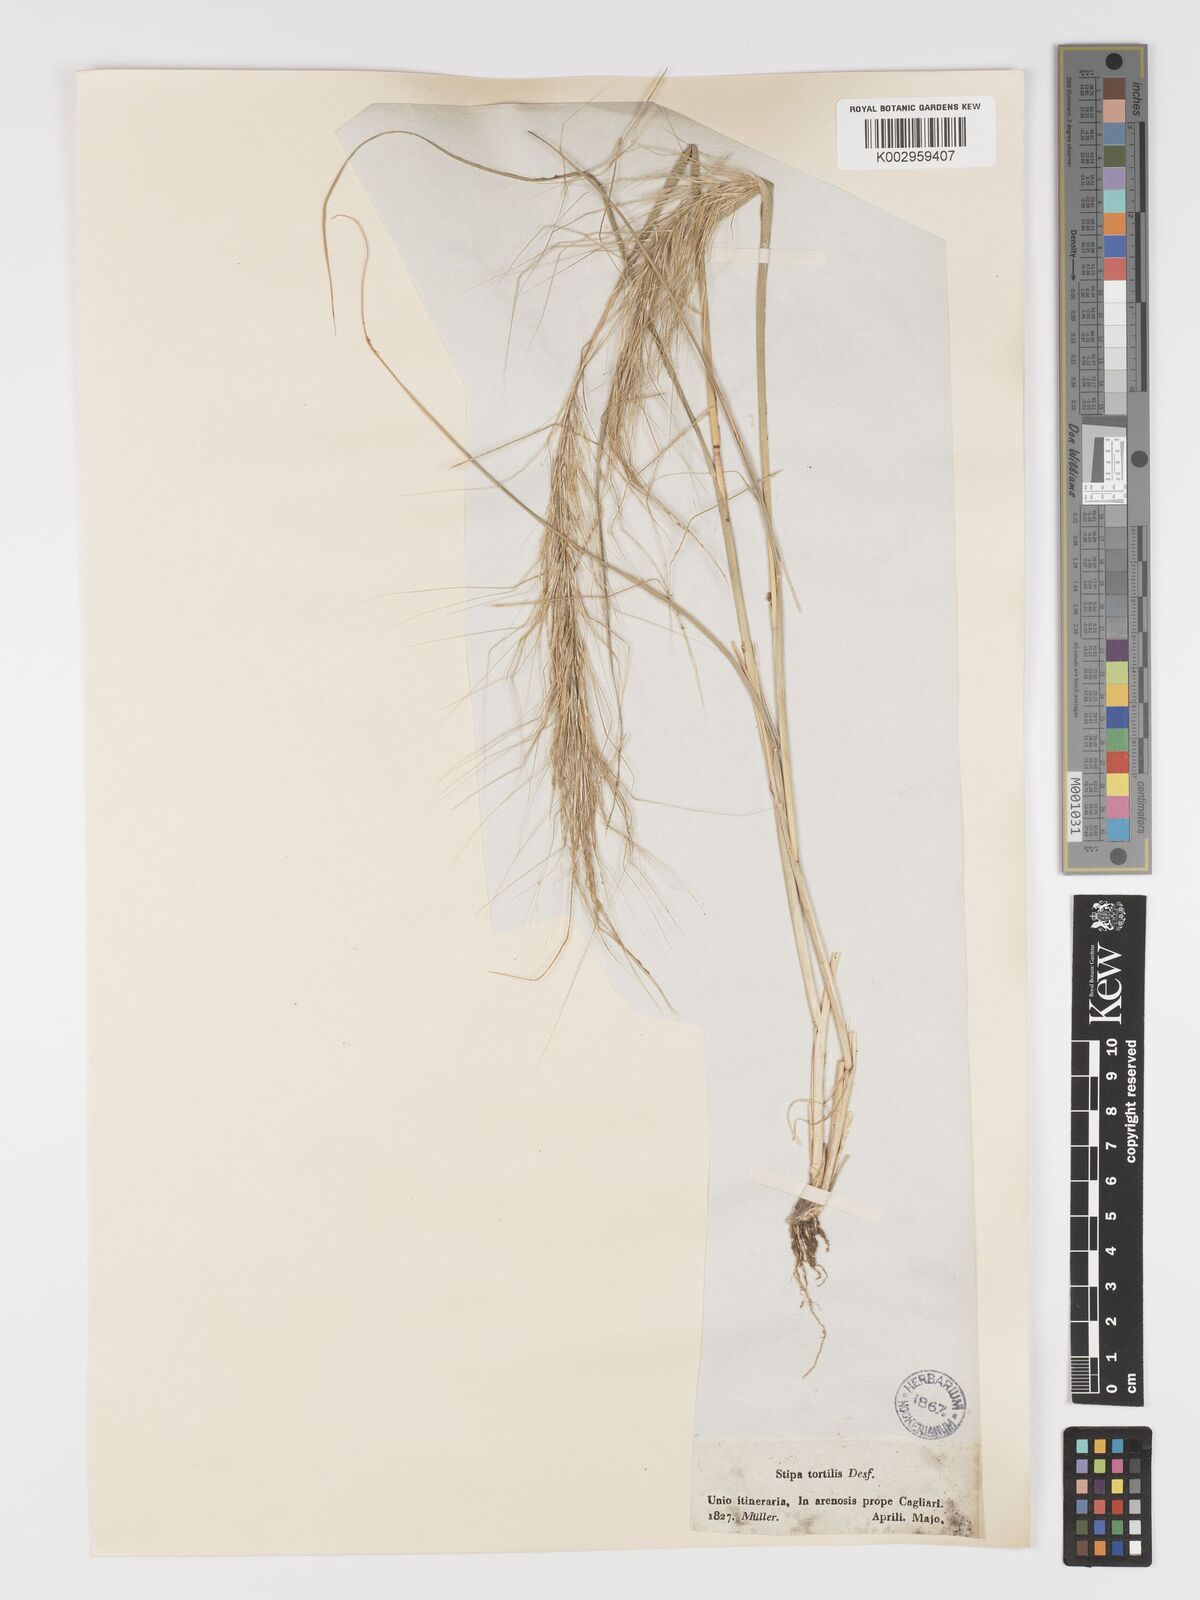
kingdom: Plantae
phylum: Tracheophyta
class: Liliopsida
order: Poales
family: Poaceae
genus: Stipa
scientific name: Stipa
